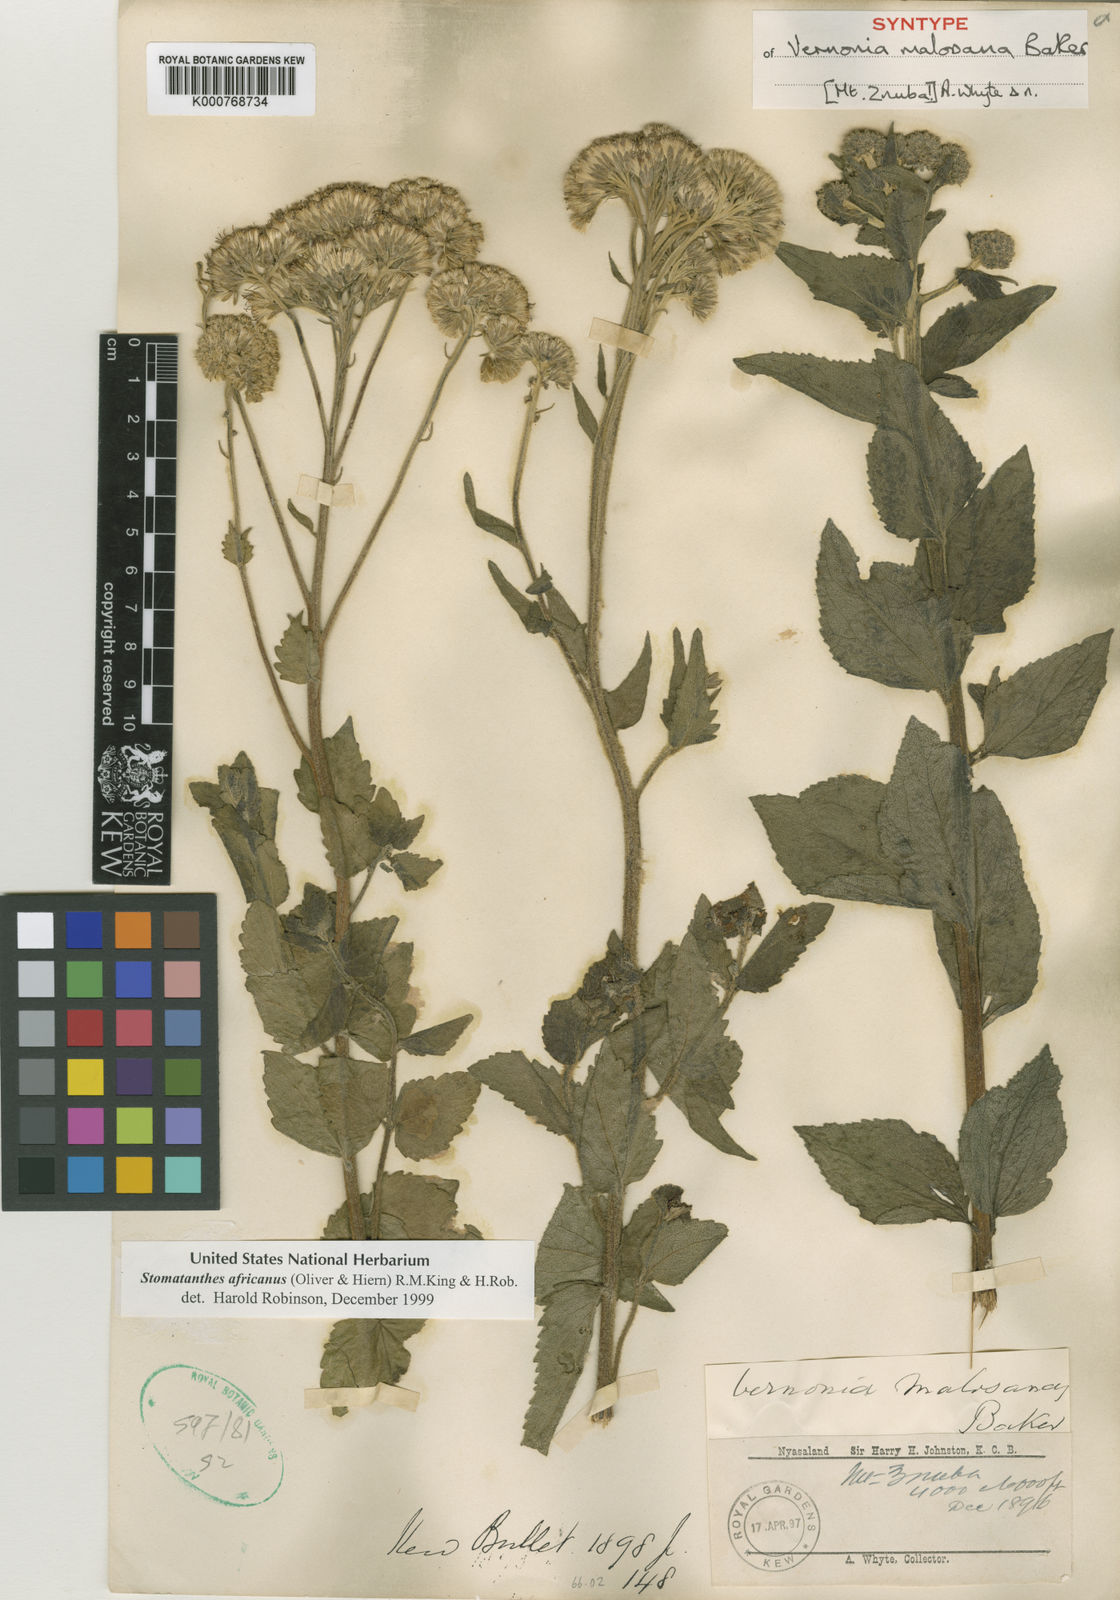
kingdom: Plantae
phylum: Tracheophyta
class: Magnoliopsida
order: Asterales
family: Asteraceae
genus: Stomatanthes
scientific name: Stomatanthes africanus
